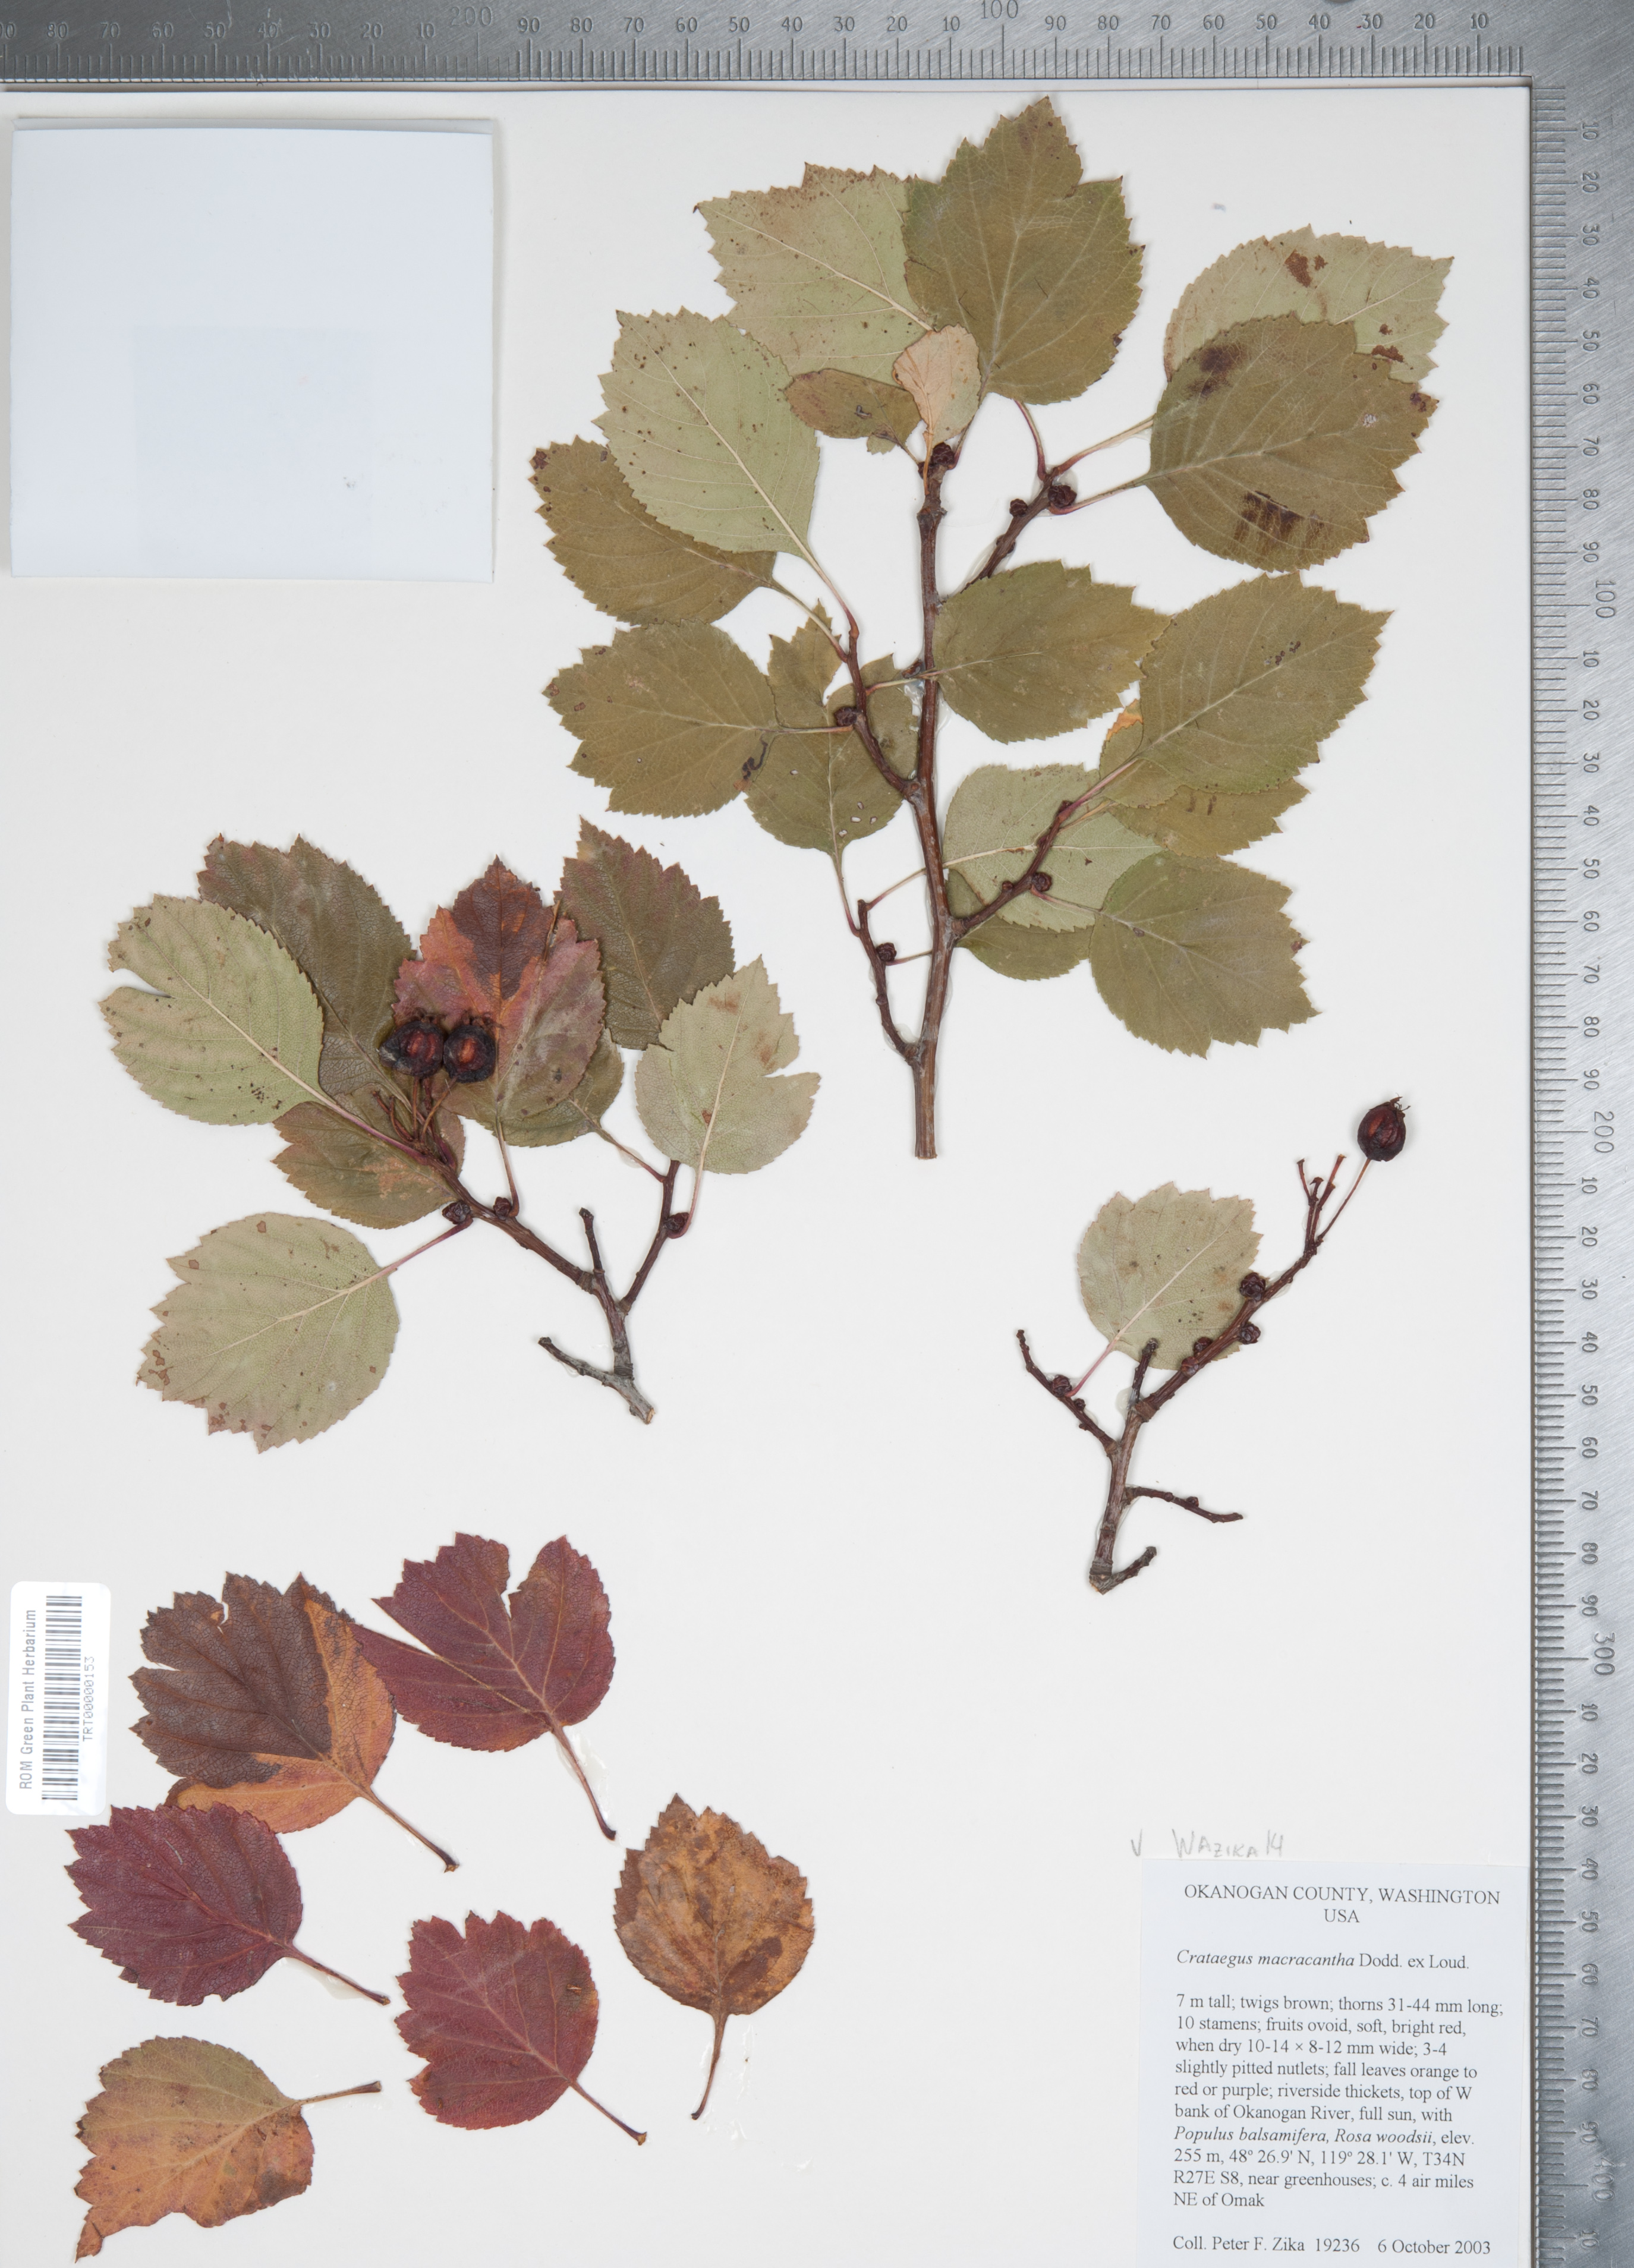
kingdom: Plantae
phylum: Tracheophyta
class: Magnoliopsida
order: Rosales
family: Rosaceae
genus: Crataegus
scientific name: Crataegus macracantha
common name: Large-thorn hawthorn
